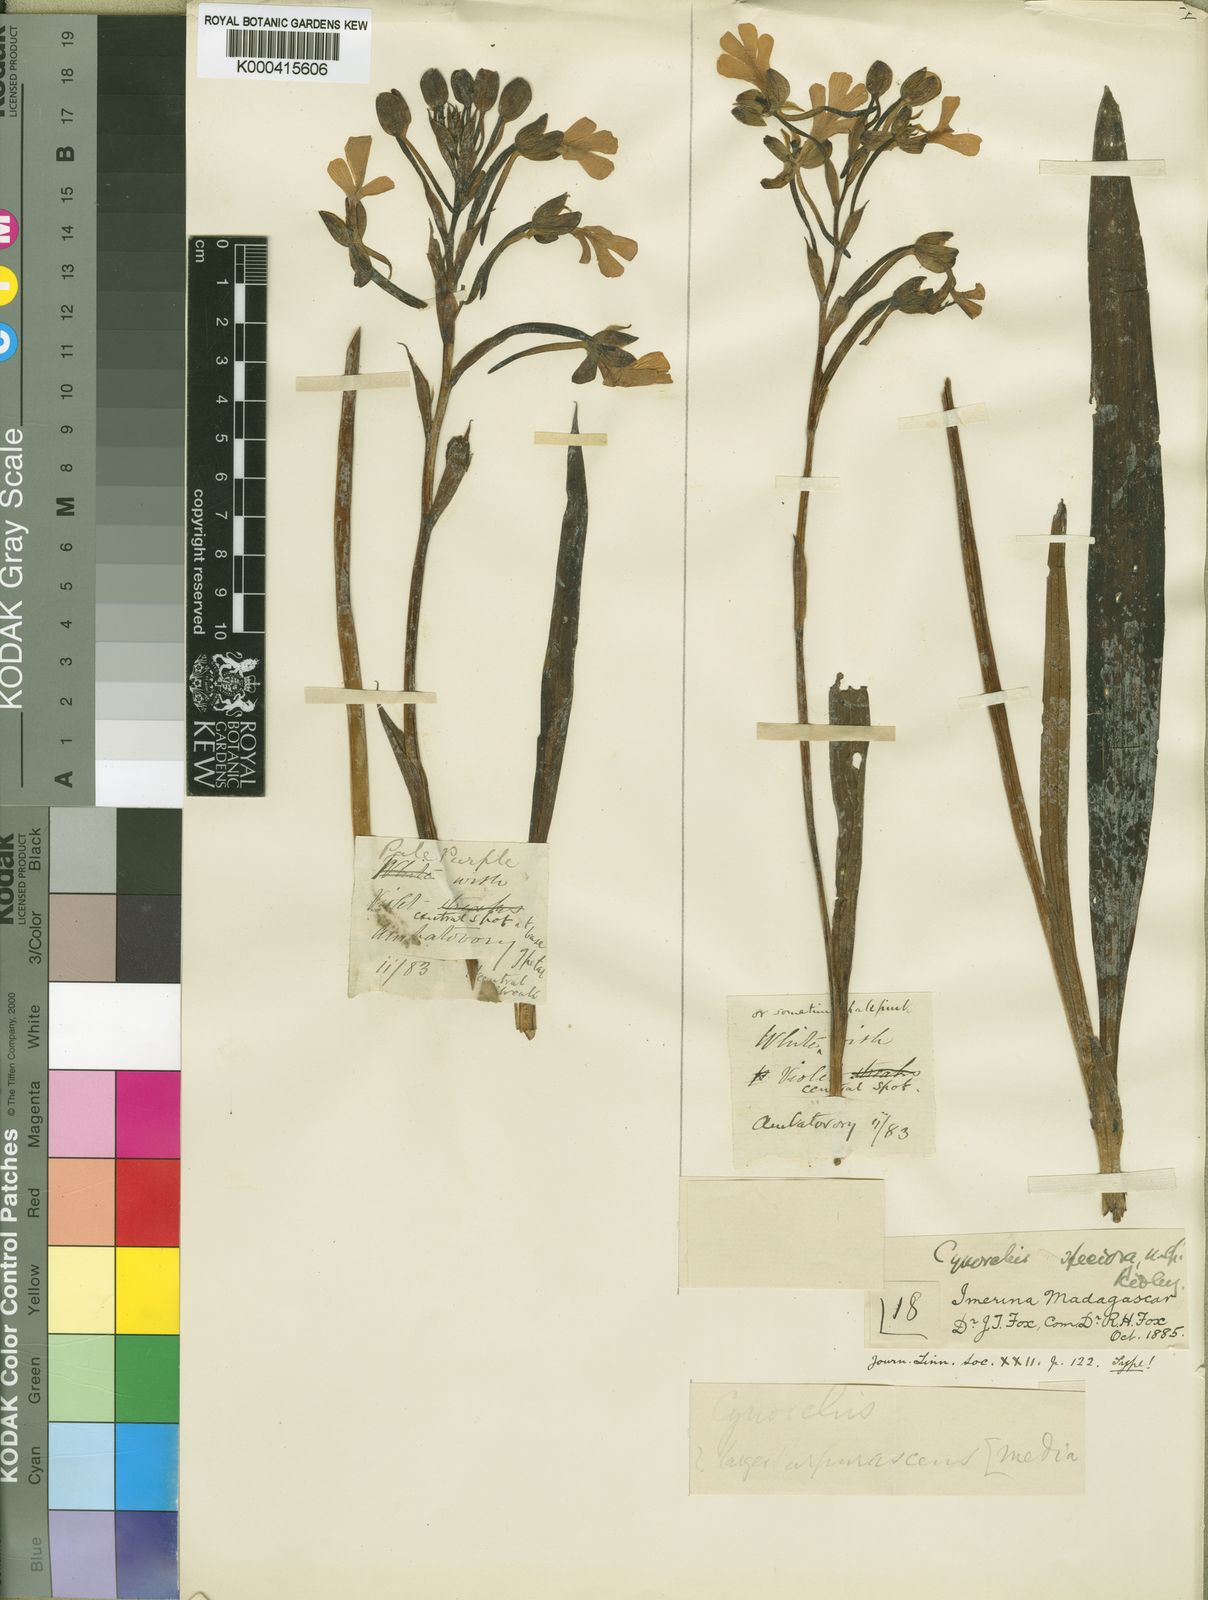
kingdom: Plantae
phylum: Tracheophyta
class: Liliopsida
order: Asparagales
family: Orchidaceae
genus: Cynorkis
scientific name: Cynorkis angustipetala
